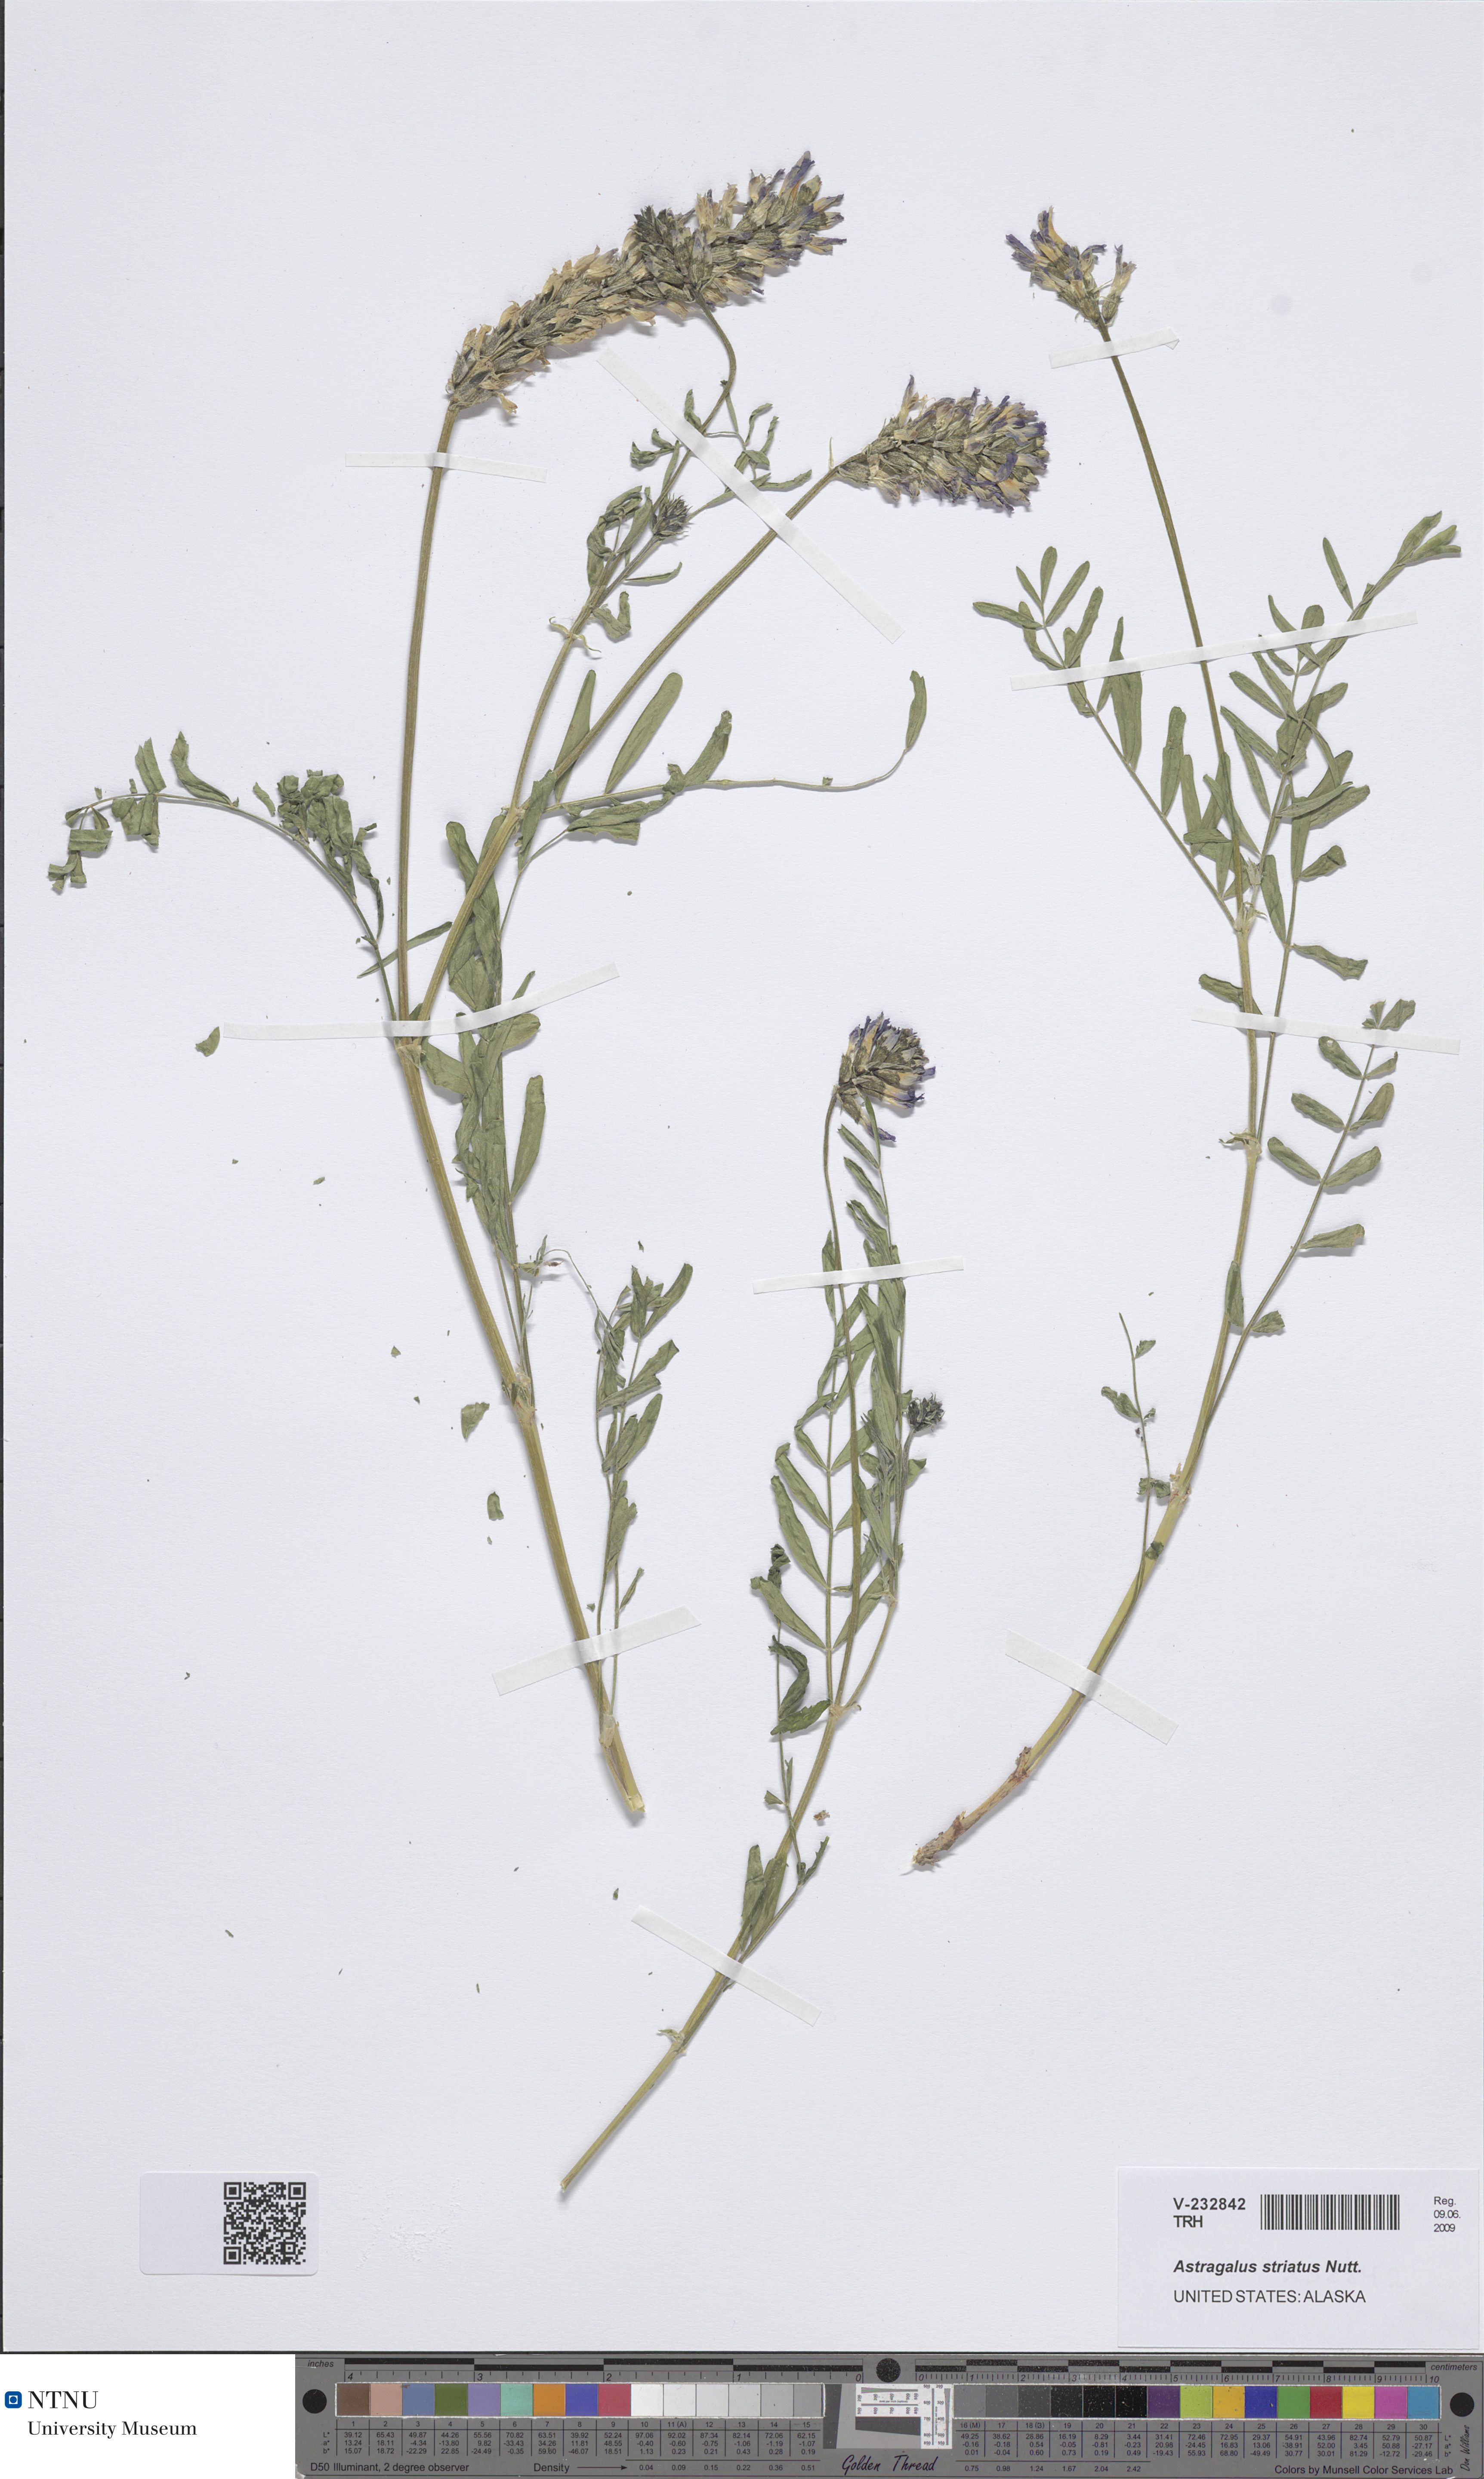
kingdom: Plantae
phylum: Tracheophyta
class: Magnoliopsida
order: Fabales
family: Fabaceae
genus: Astragalus
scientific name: Astragalus laxmannii
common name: Laxmann's milk-vetch
